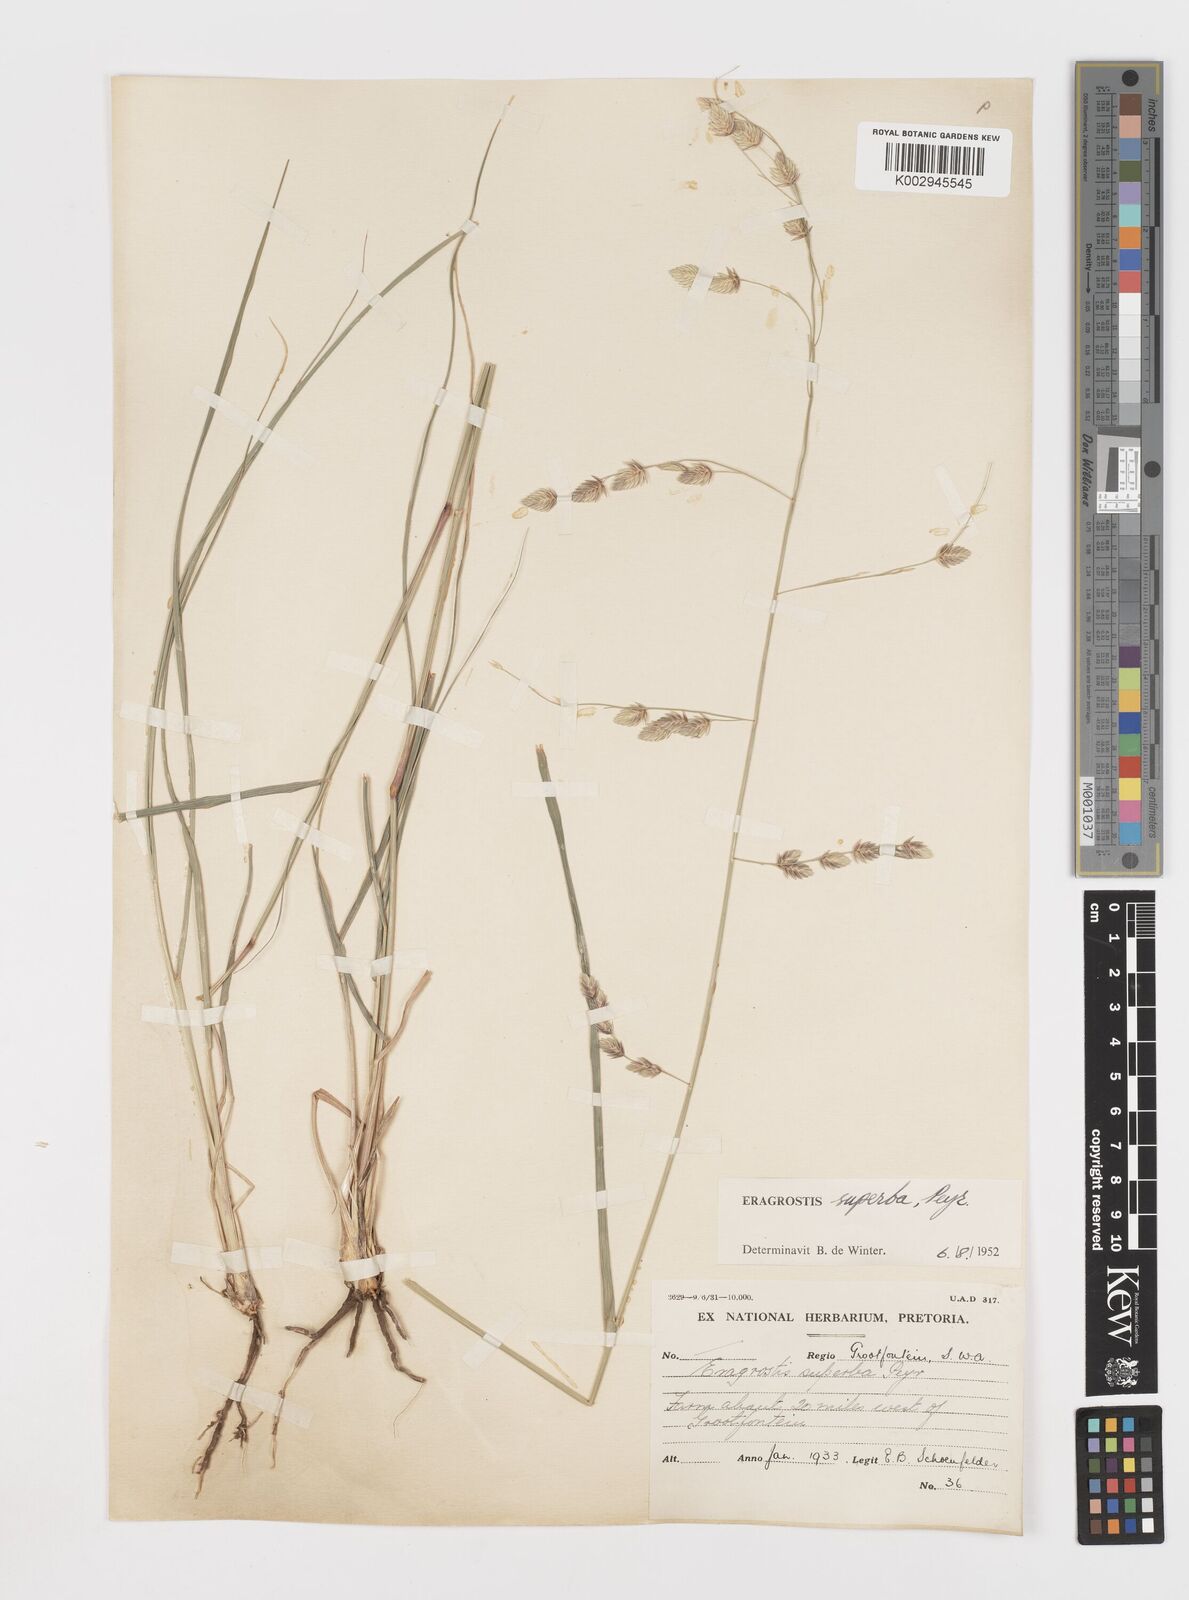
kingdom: Plantae
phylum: Tracheophyta
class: Liliopsida
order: Poales
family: Poaceae
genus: Eragrostis
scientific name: Eragrostis superba
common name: Wilman lovegrass
